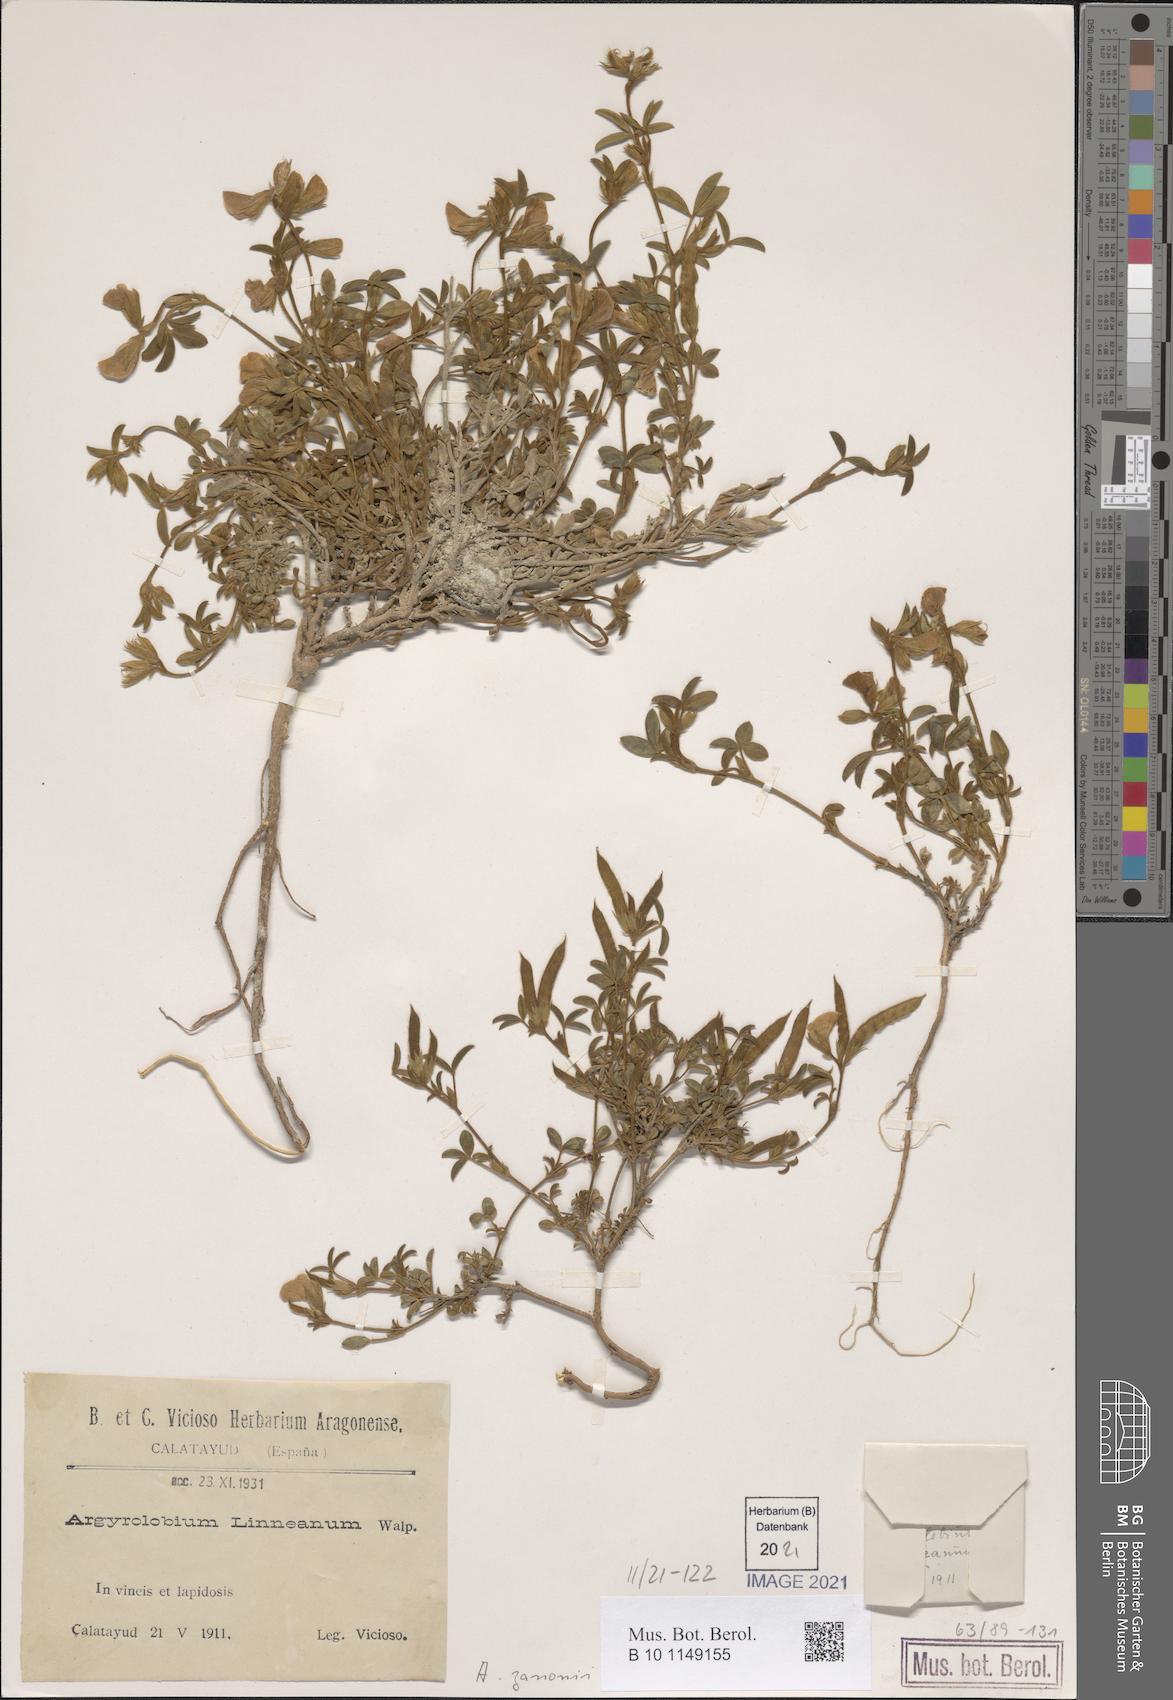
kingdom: Plantae
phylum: Tracheophyta
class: Magnoliopsida
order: Fabales
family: Fabaceae
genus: Argyrolobium
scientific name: Argyrolobium zanonii
